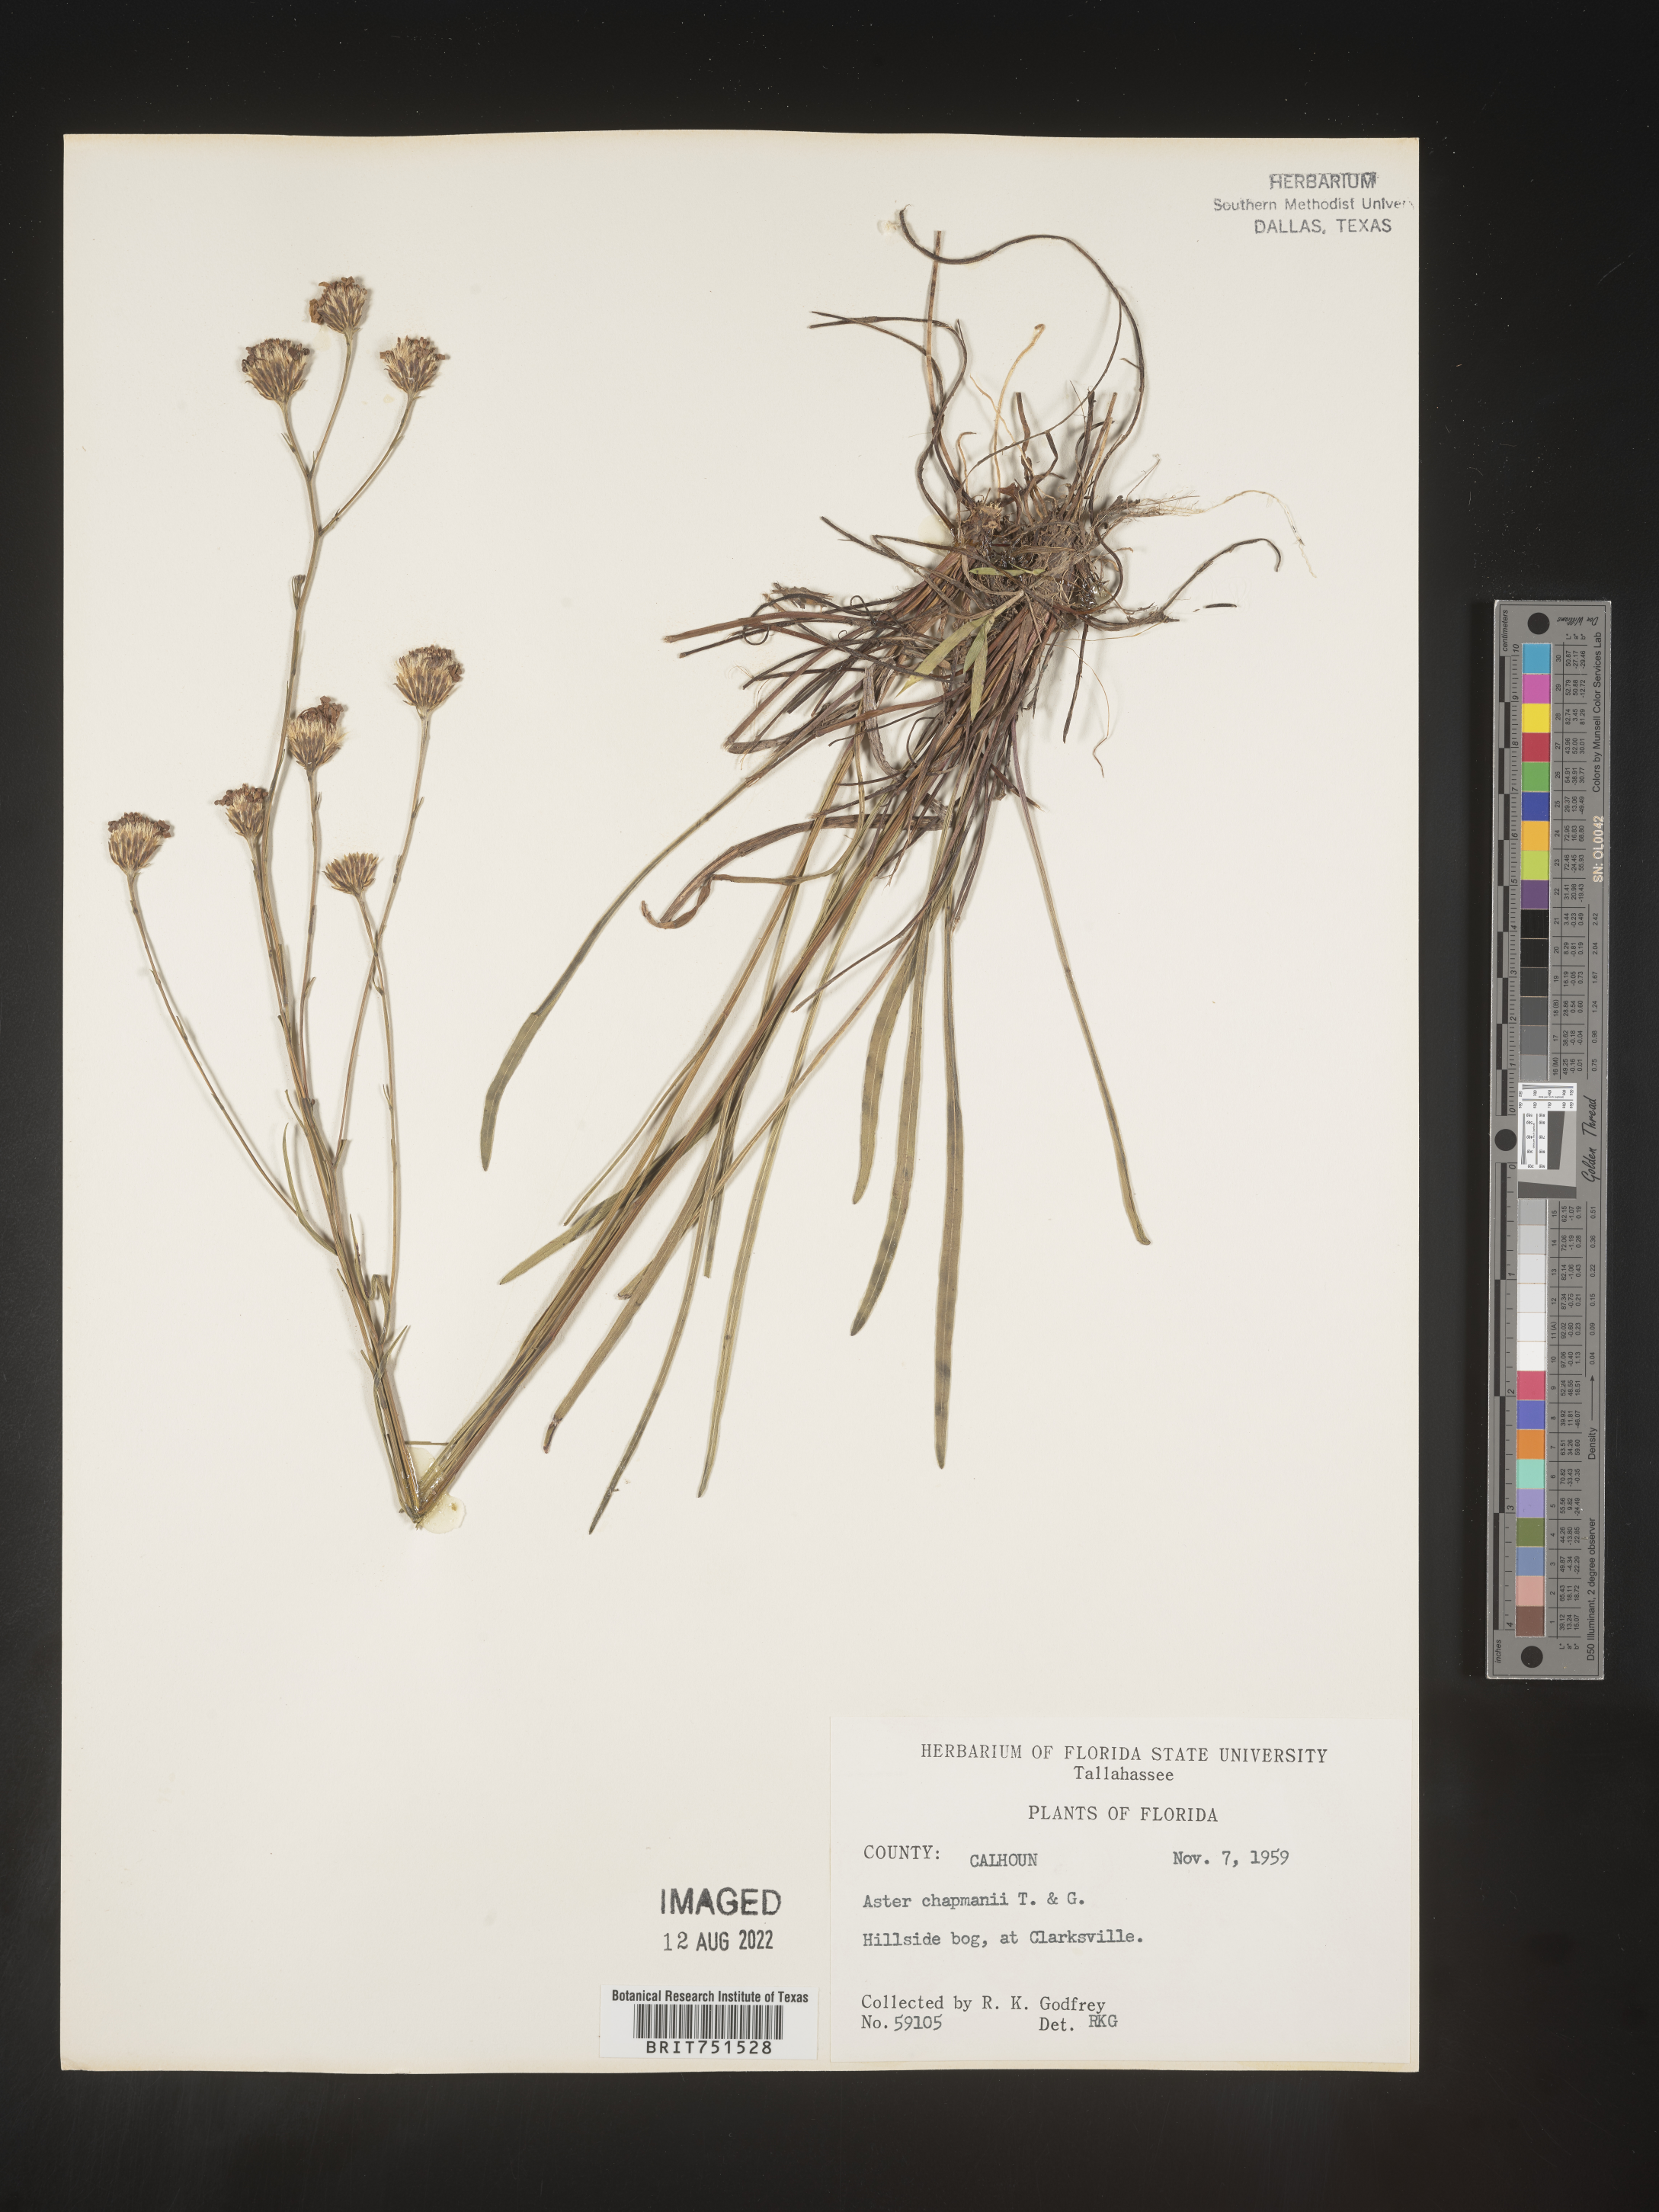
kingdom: Plantae
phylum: Tracheophyta
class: Magnoliopsida
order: Asterales
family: Asteraceae
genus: Symphyotrichum
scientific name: Symphyotrichum chapmanii
